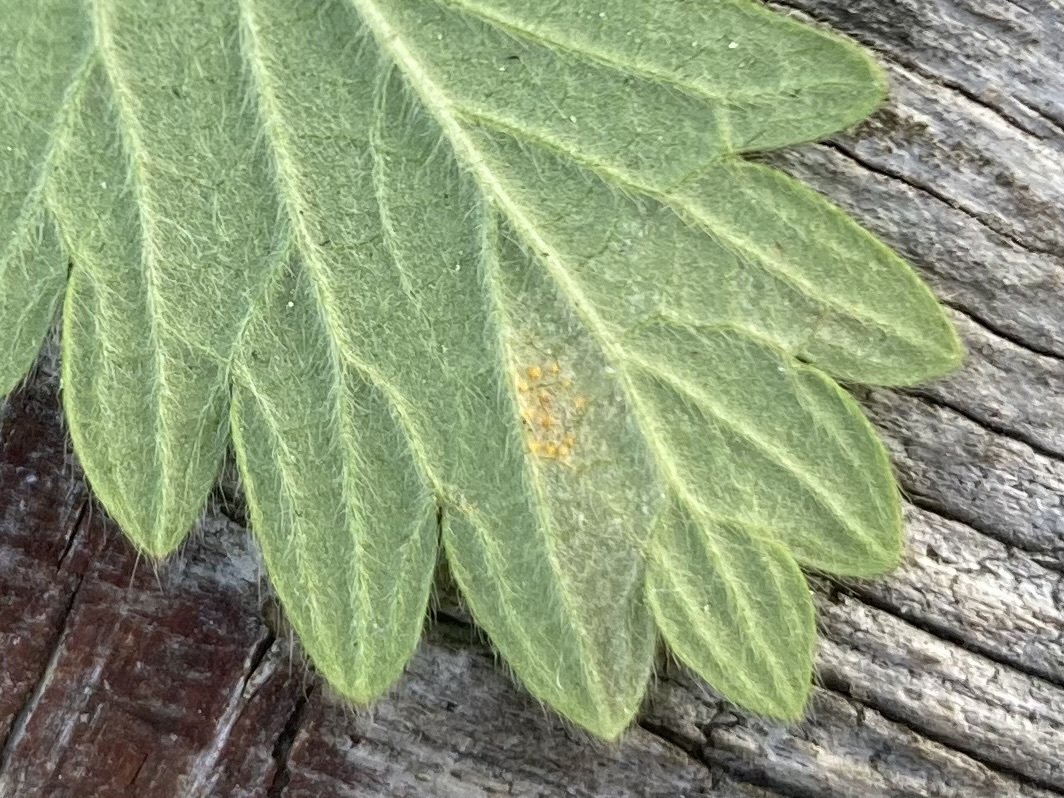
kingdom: Fungi
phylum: Basidiomycota
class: Pucciniomycetes
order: Pucciniales
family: Raveneliaceae
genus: Triphragmium
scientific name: Triphragmium ulmariae
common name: almindelig mjødurtrust
